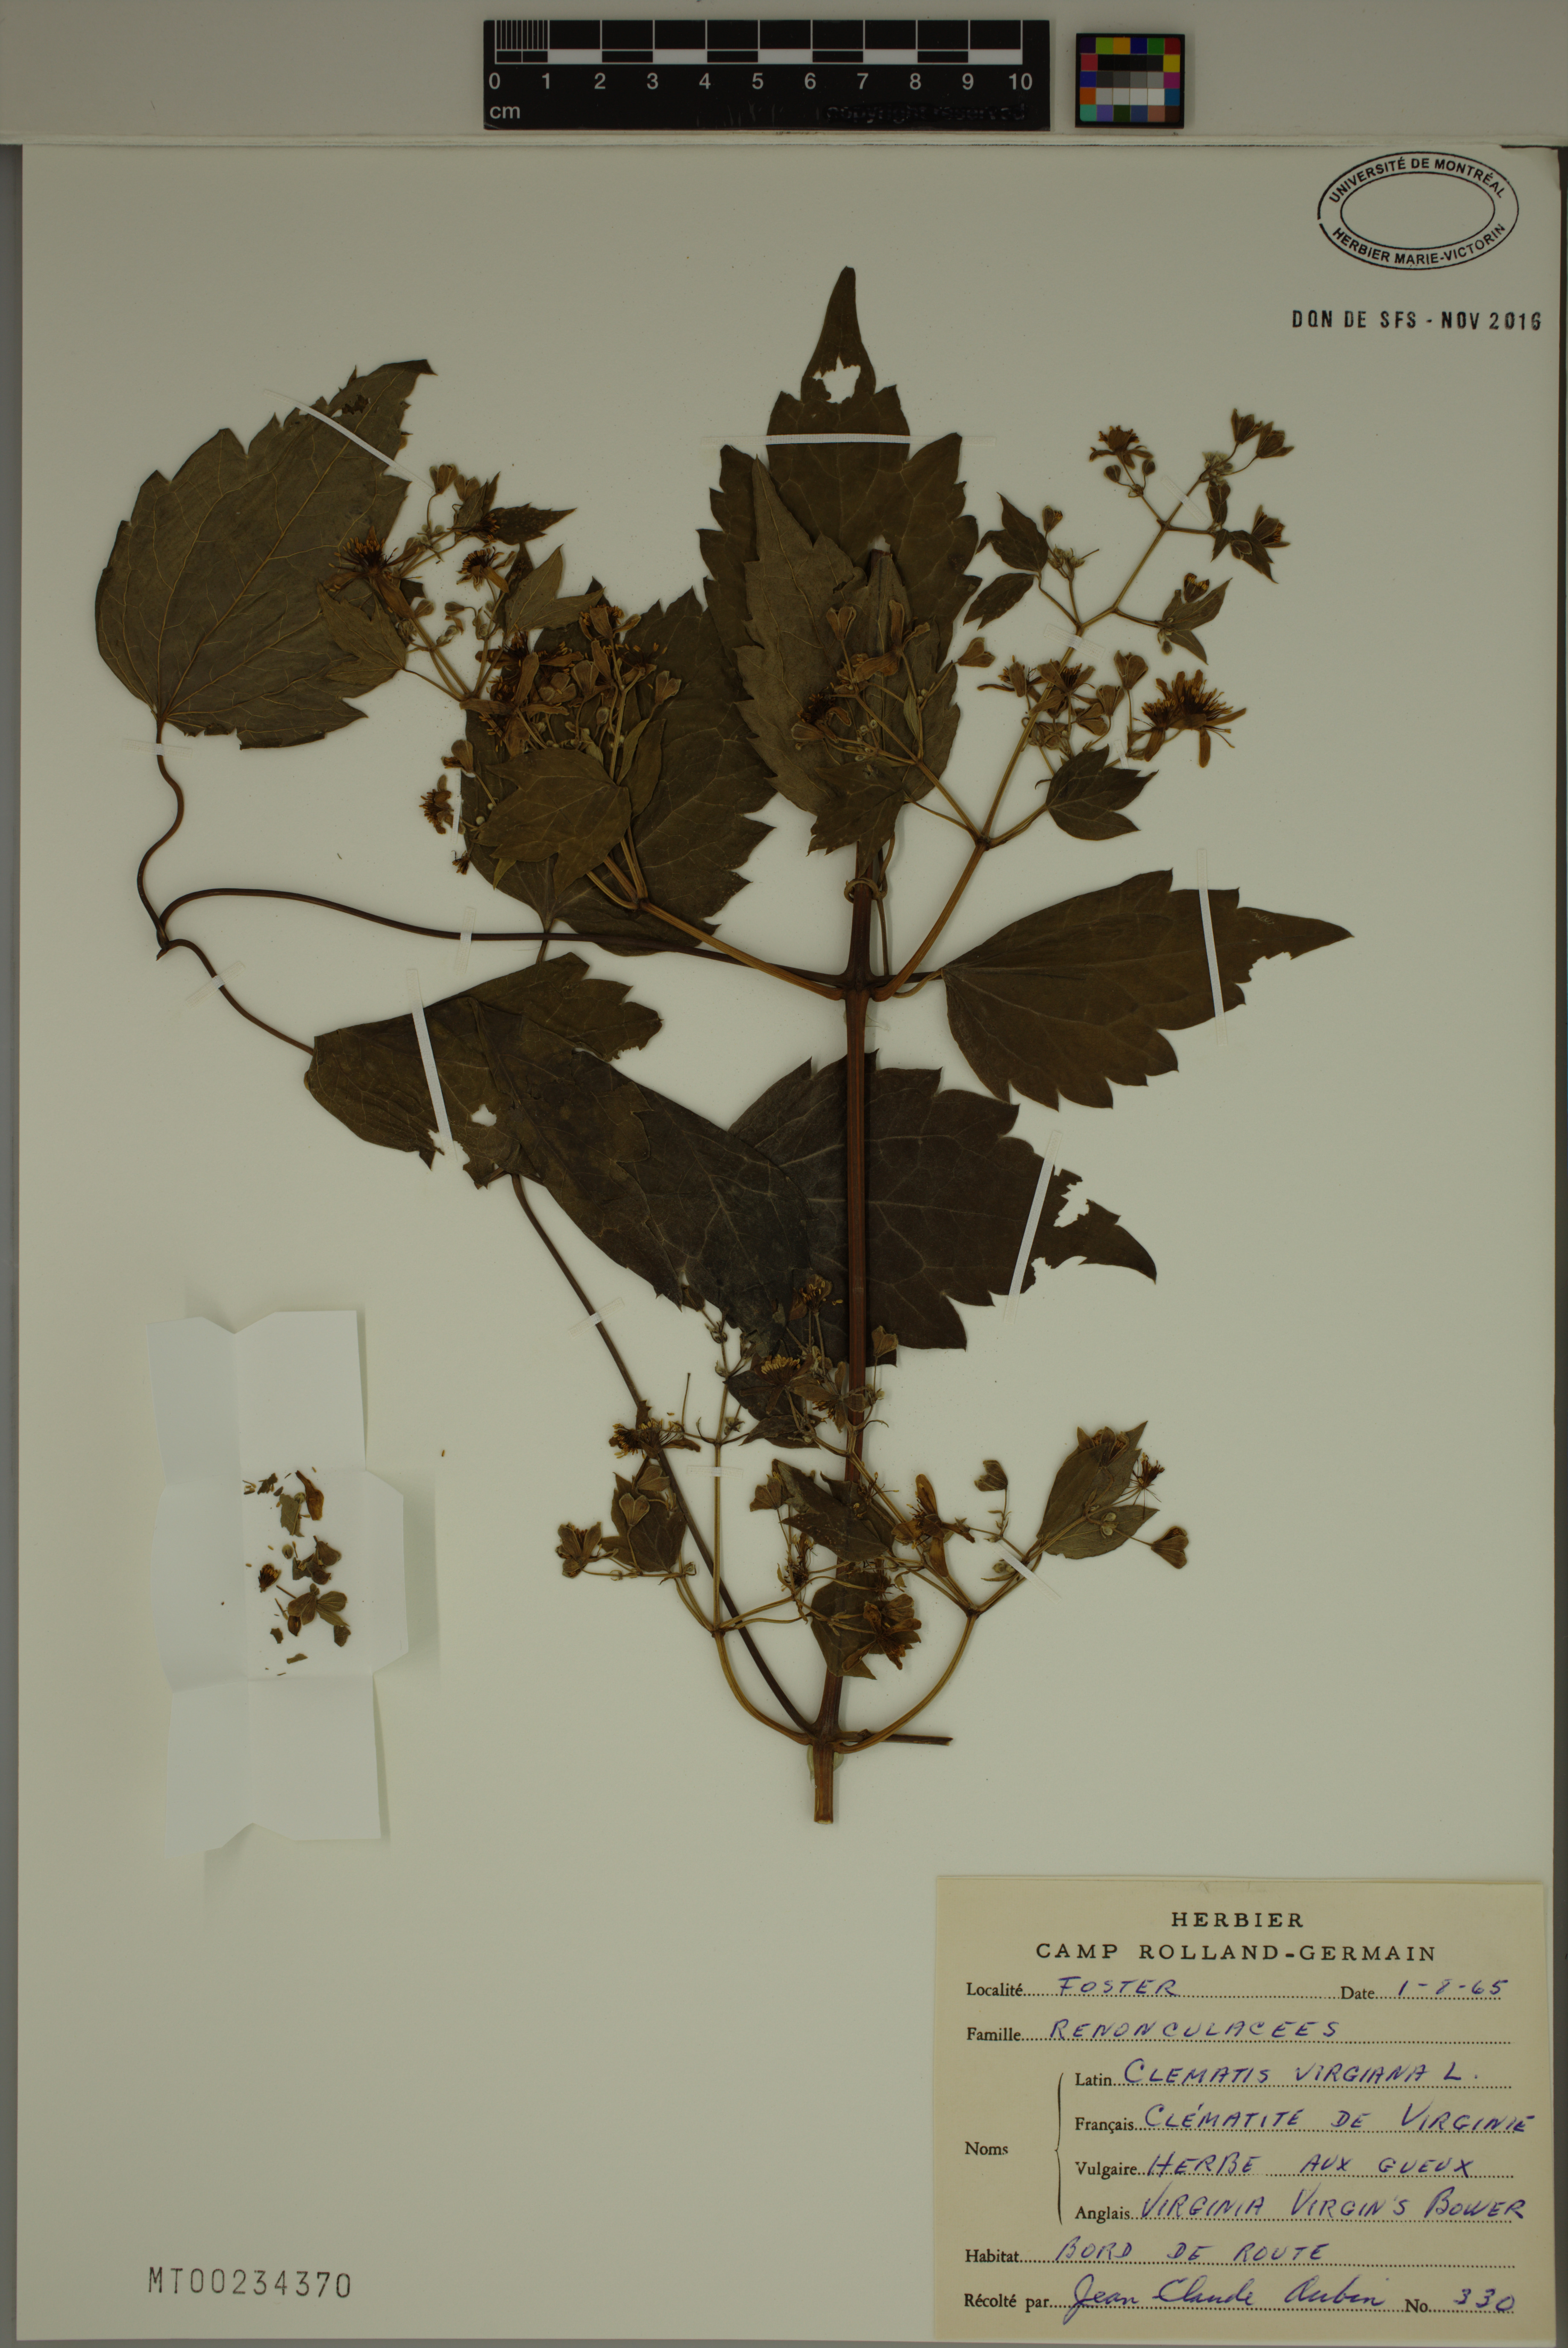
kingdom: Plantae
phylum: Tracheophyta
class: Magnoliopsida
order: Ranunculales
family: Ranunculaceae
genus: Clematis
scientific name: Clematis virginiana
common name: Virgin's-bower
